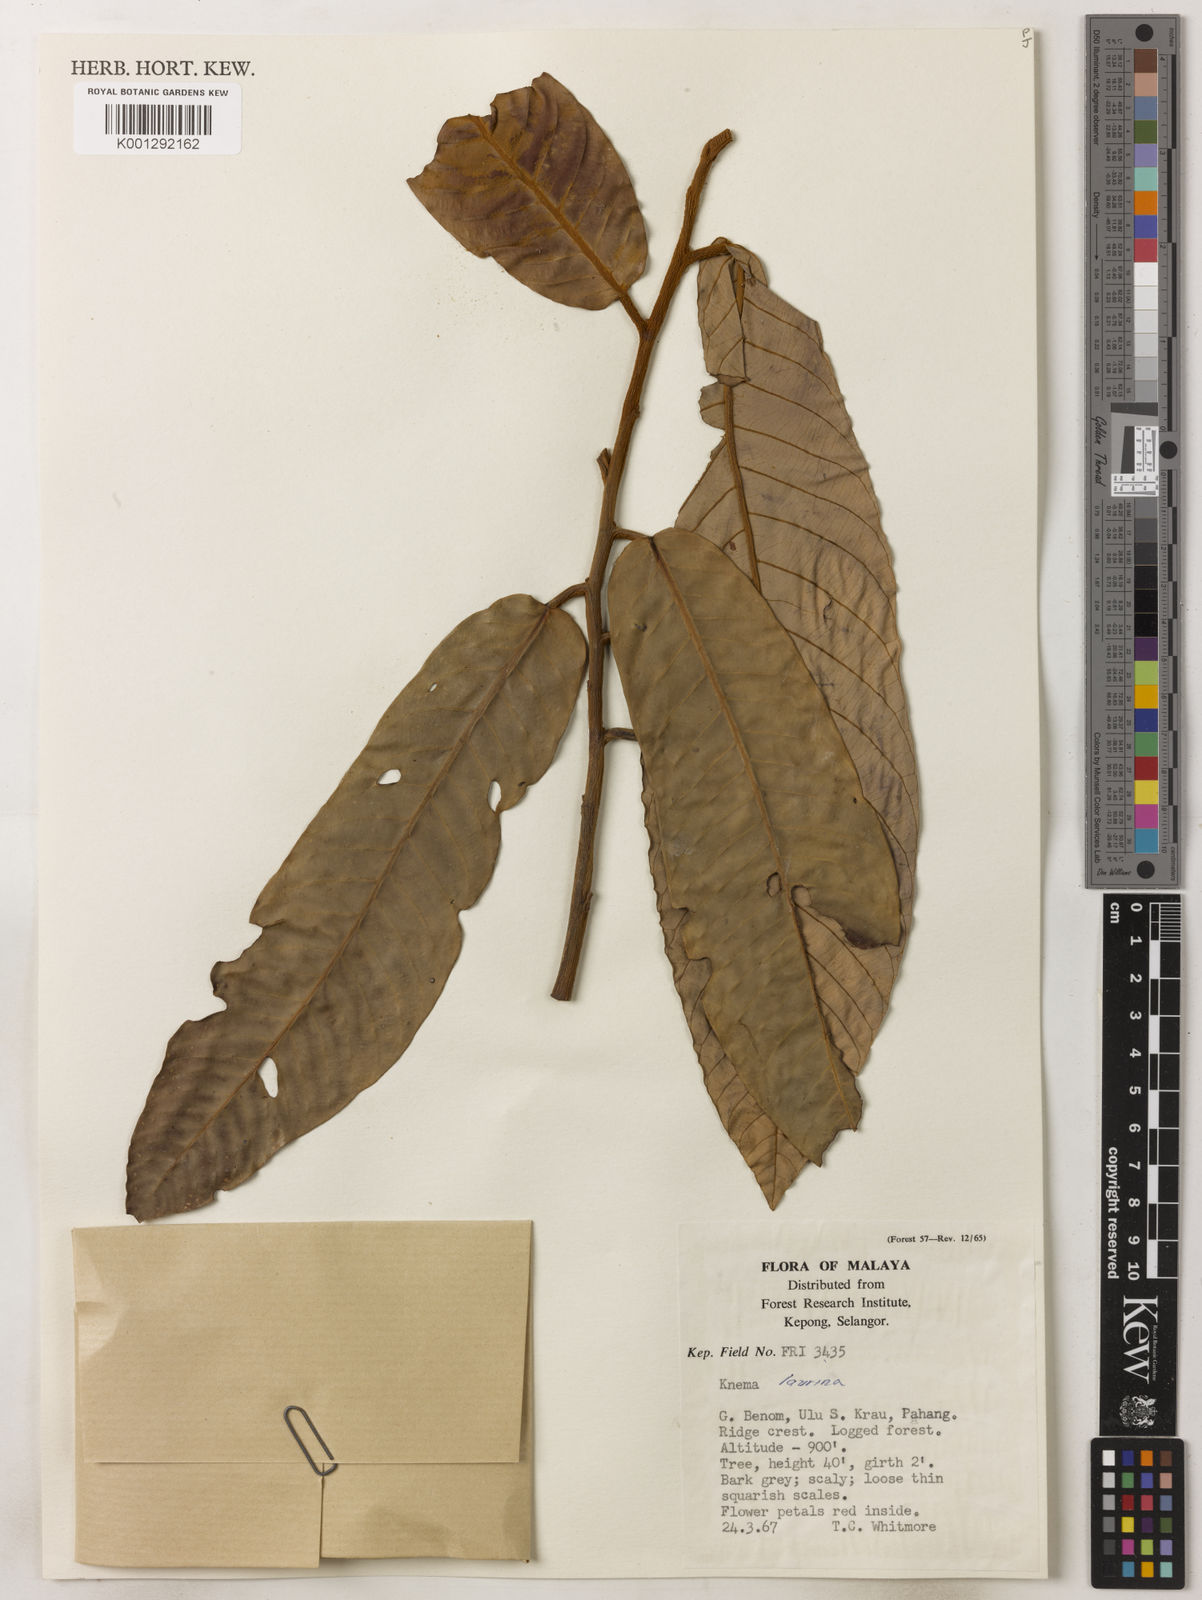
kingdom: Plantae
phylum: Tracheophyta
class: Magnoliopsida
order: Magnoliales
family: Myristicaceae
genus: Knema
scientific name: Knema laurina
